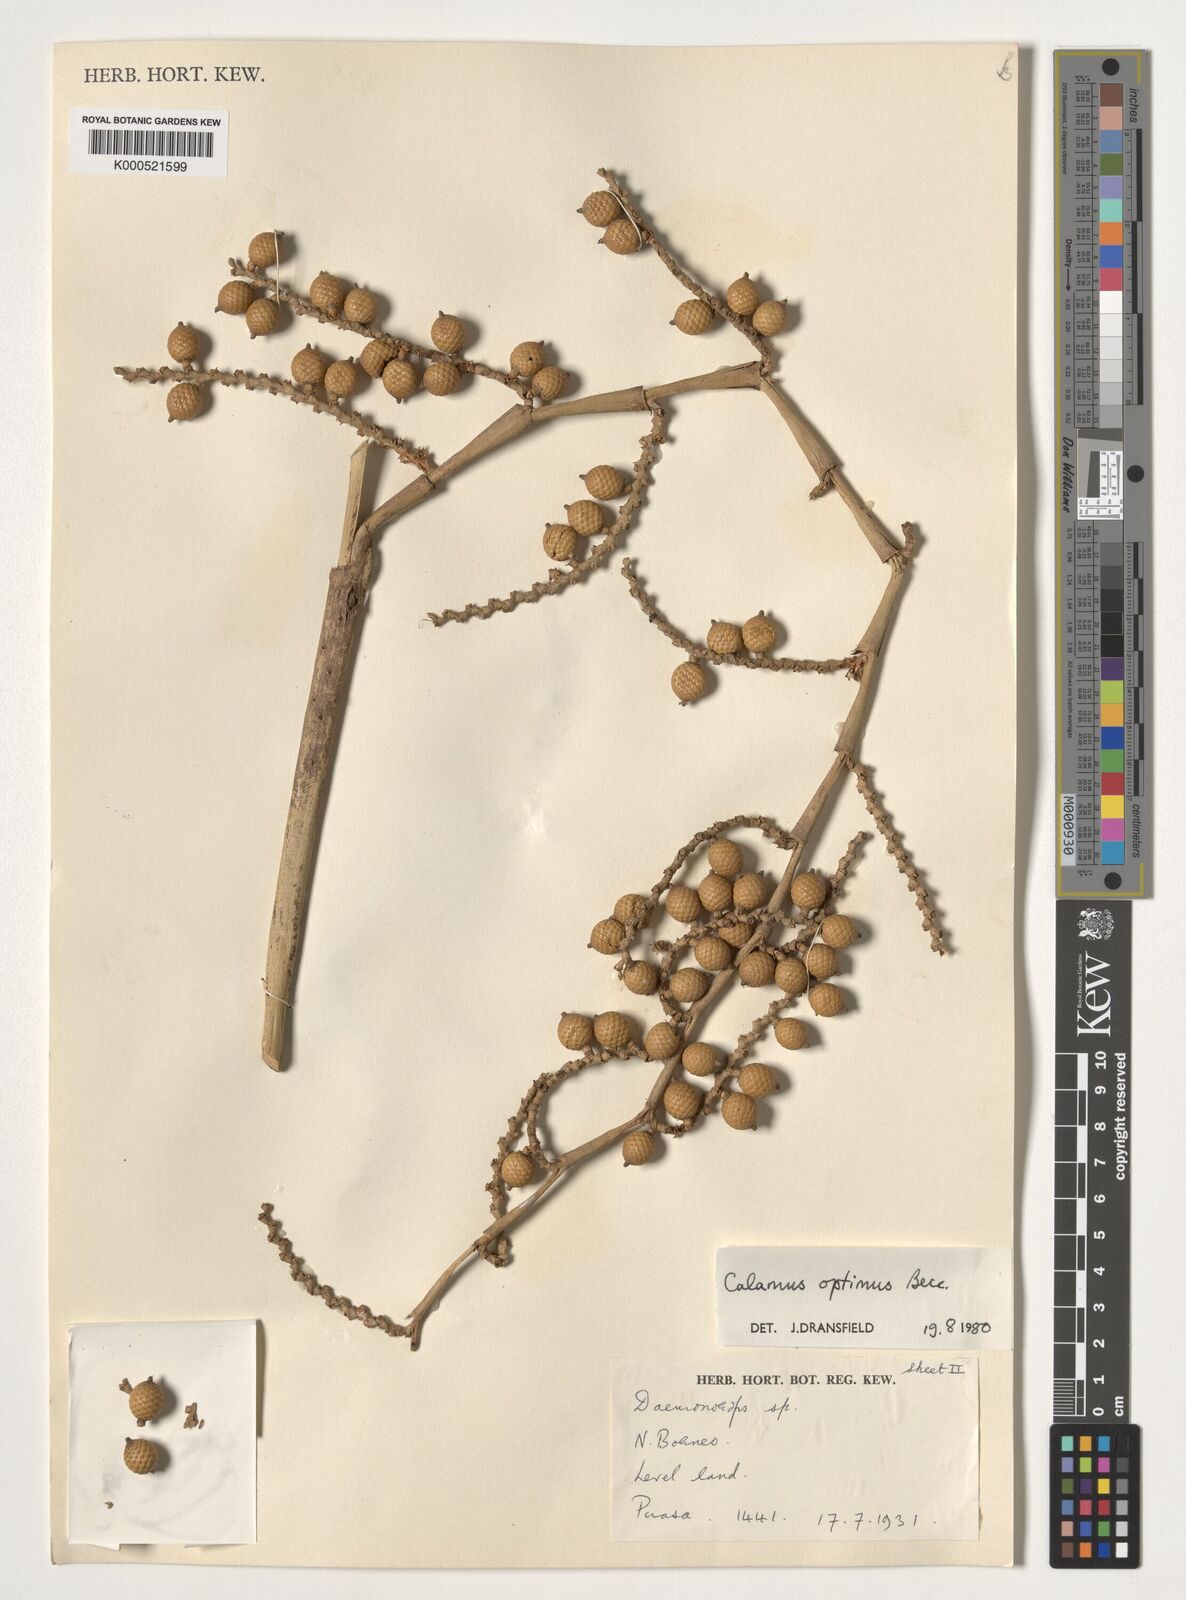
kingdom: Plantae
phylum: Tracheophyta
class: Liliopsida
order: Arecales
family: Arecaceae
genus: Calamus
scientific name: Calamus optimus
